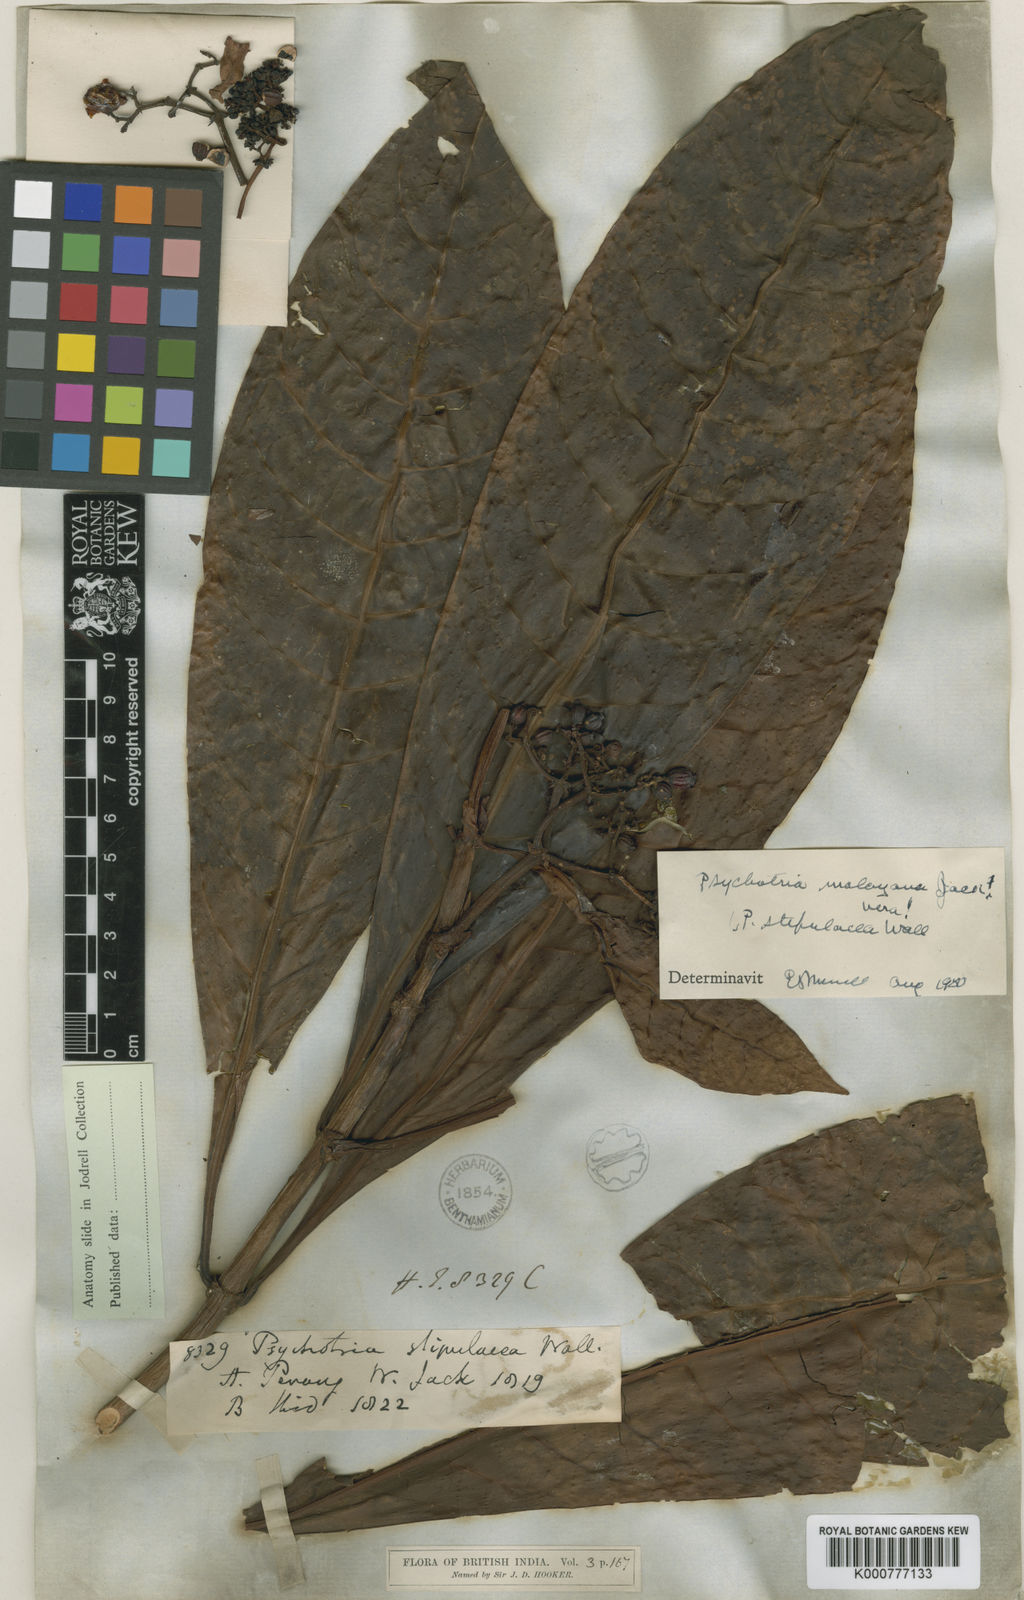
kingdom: Plantae
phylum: Tracheophyta
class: Magnoliopsida
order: Gentianales
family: Rubiaceae
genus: Psychotria
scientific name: Psychotria malayana
